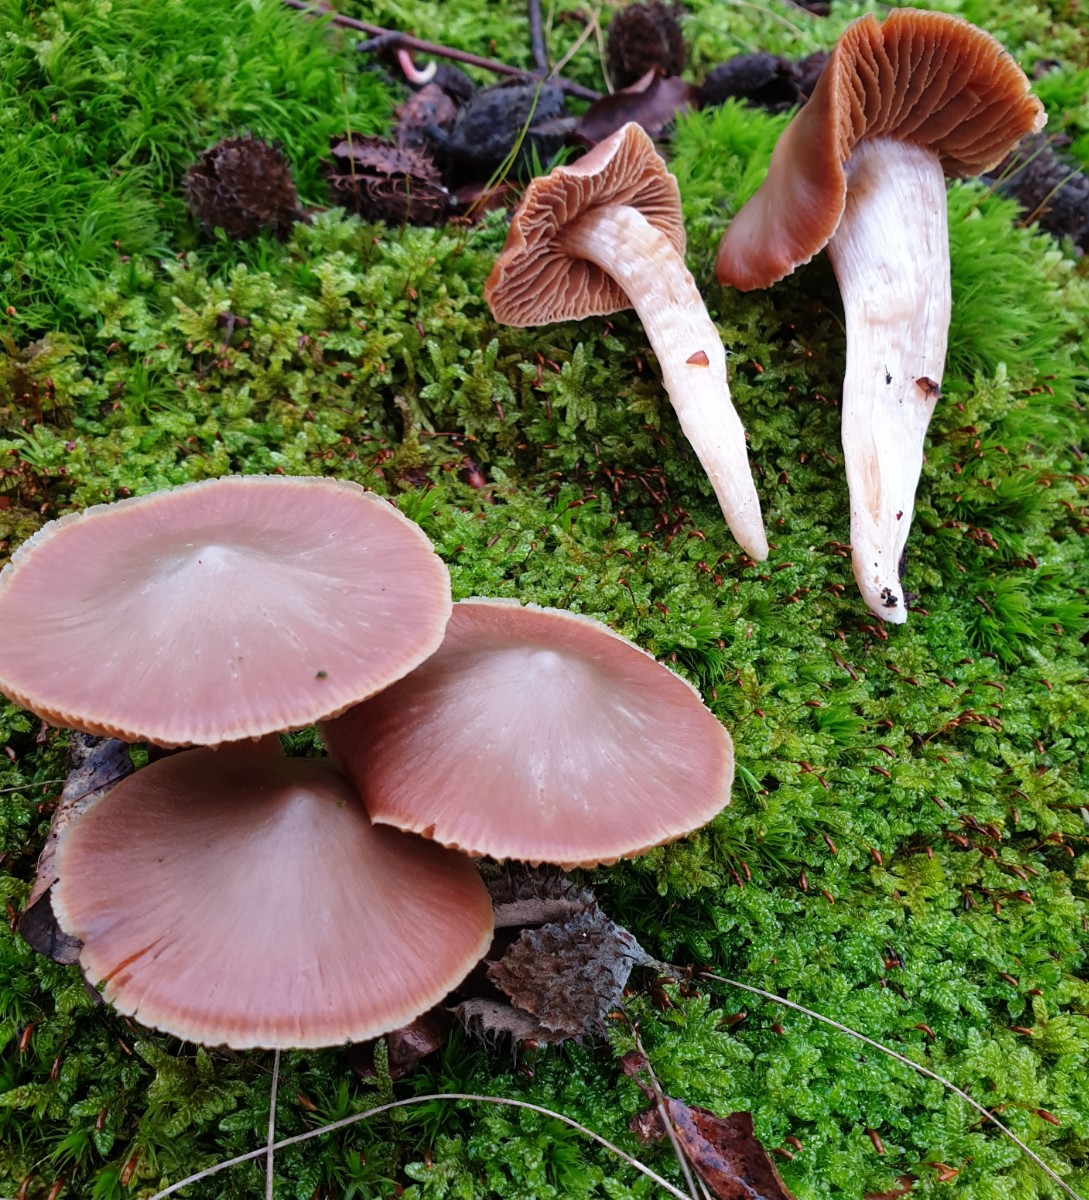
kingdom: Fungi
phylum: Basidiomycota
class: Agaricomycetes
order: Agaricales
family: Cortinariaceae
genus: Cortinarius
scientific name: Cortinarius
